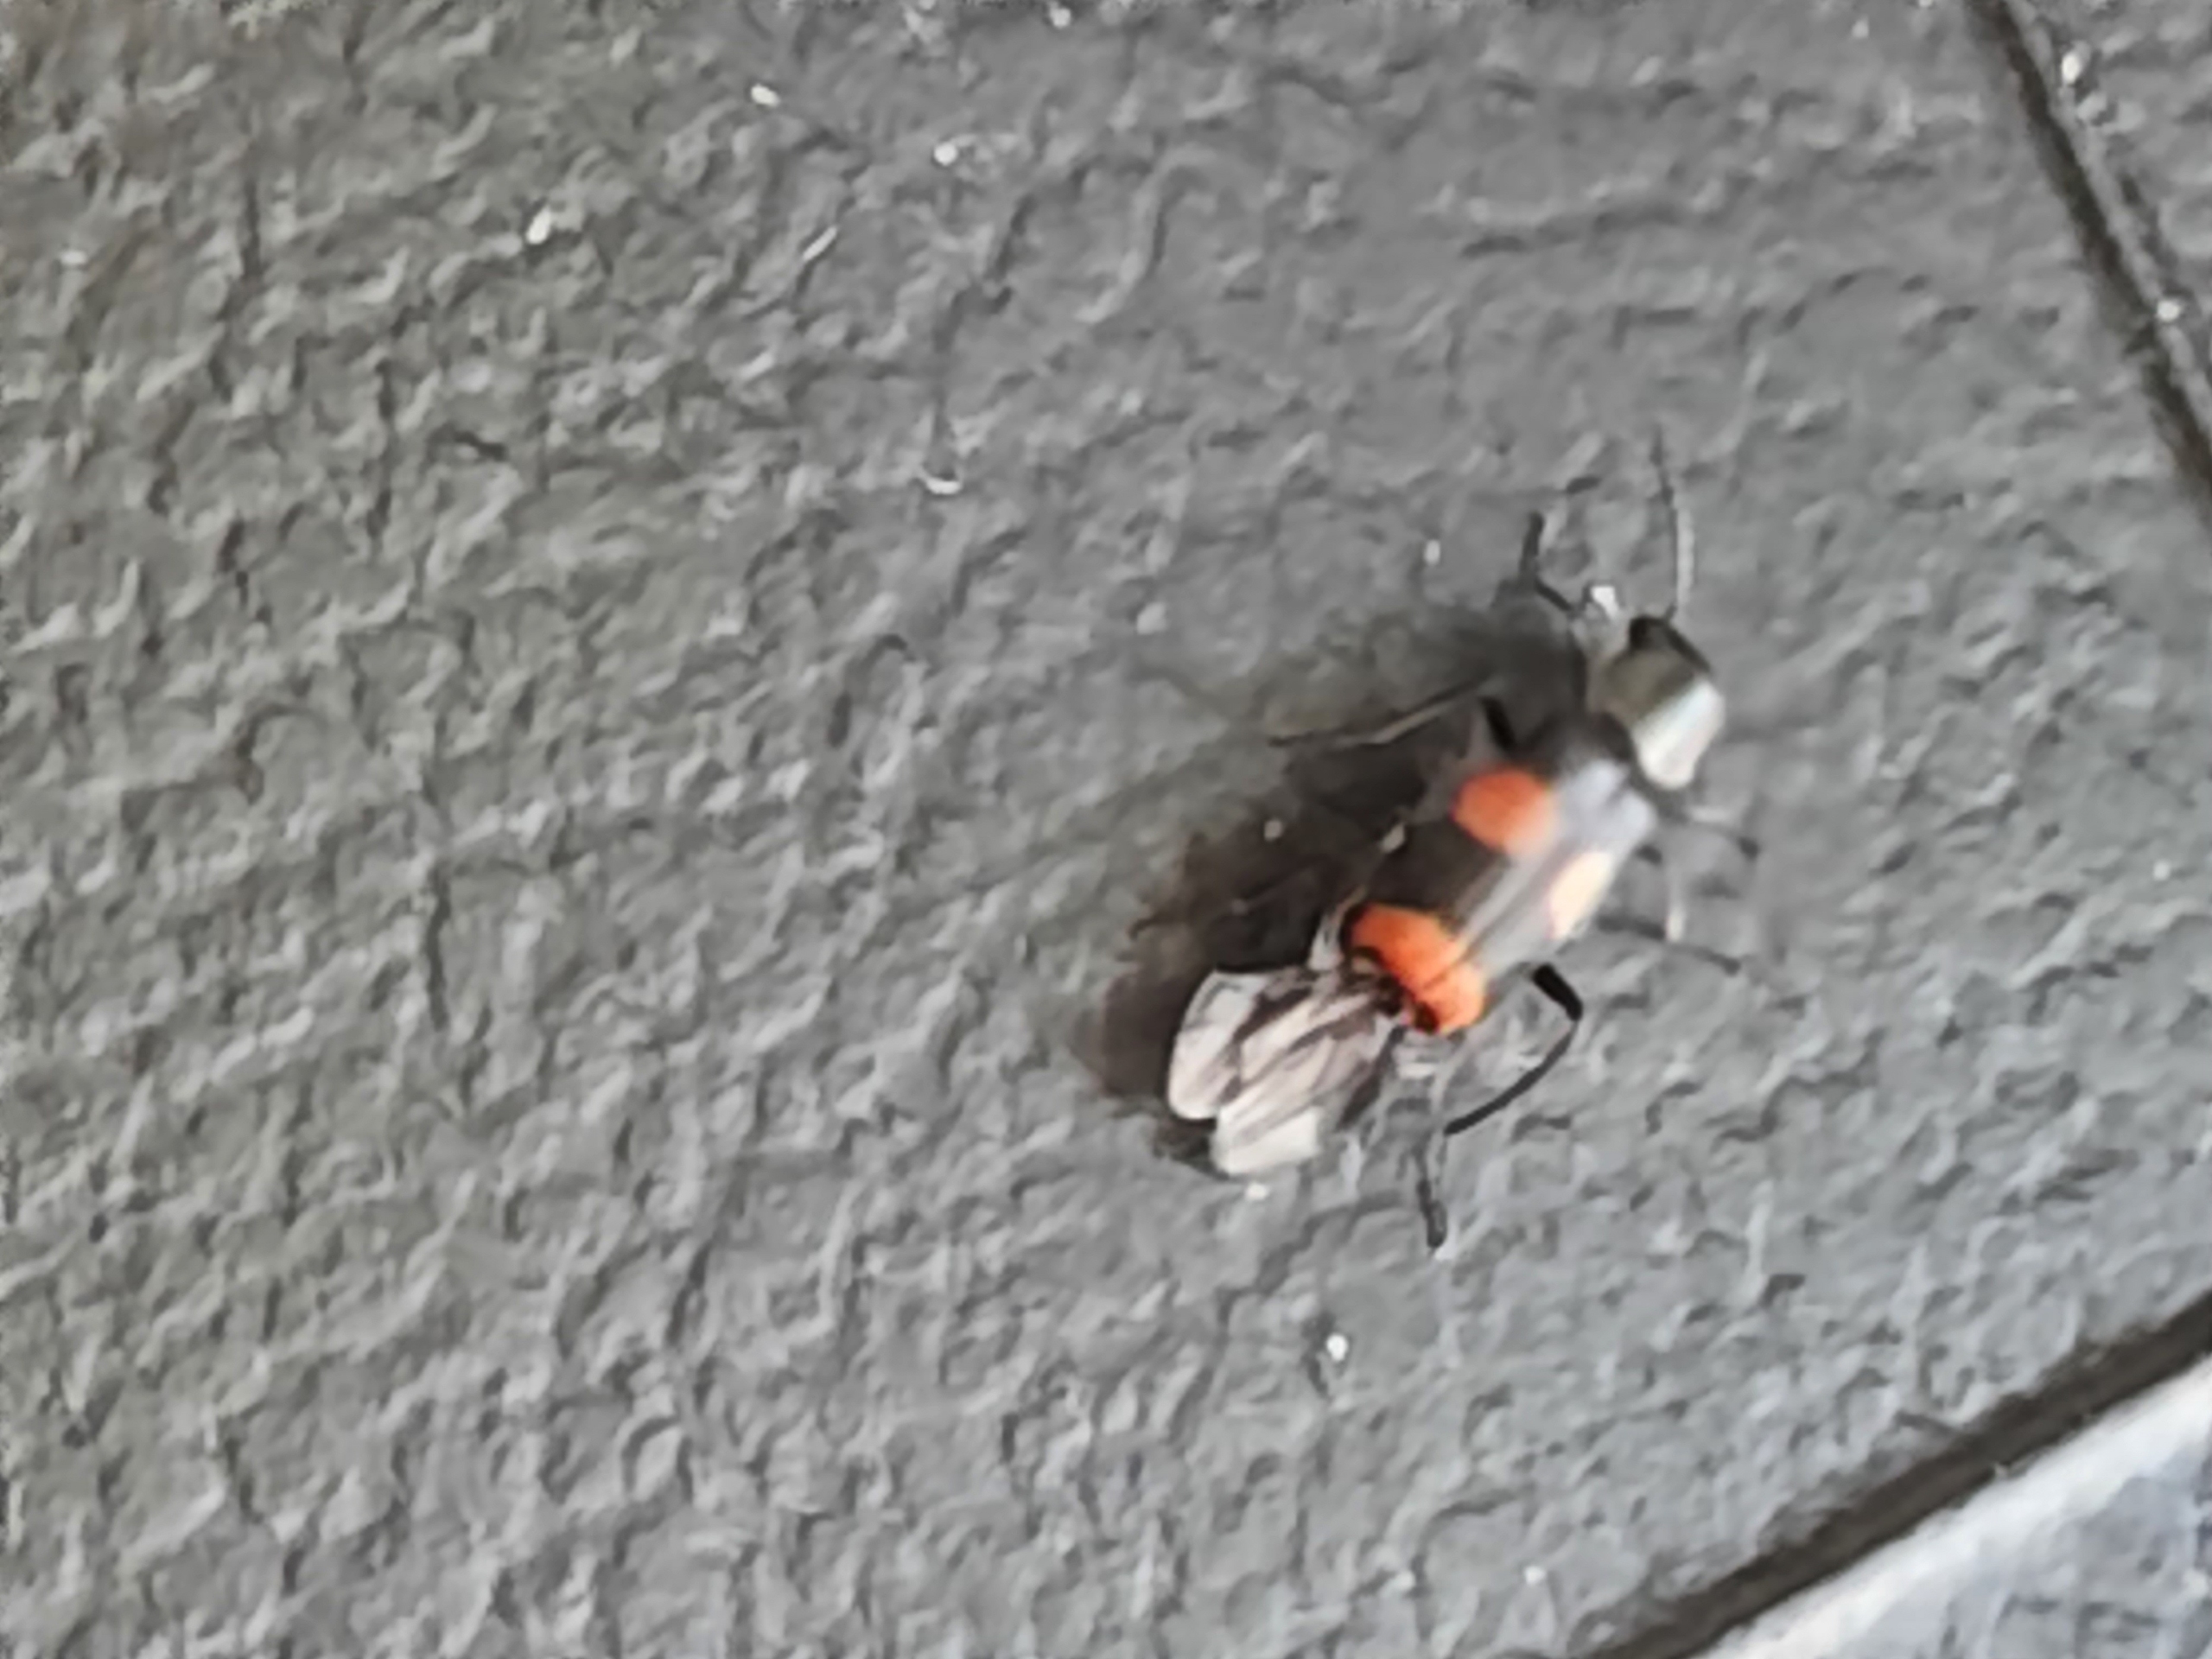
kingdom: Animalia
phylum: Arthropoda
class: Insecta
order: Coleoptera
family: Melyridae
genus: Anthocomus
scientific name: Anthocomus fasciatus
